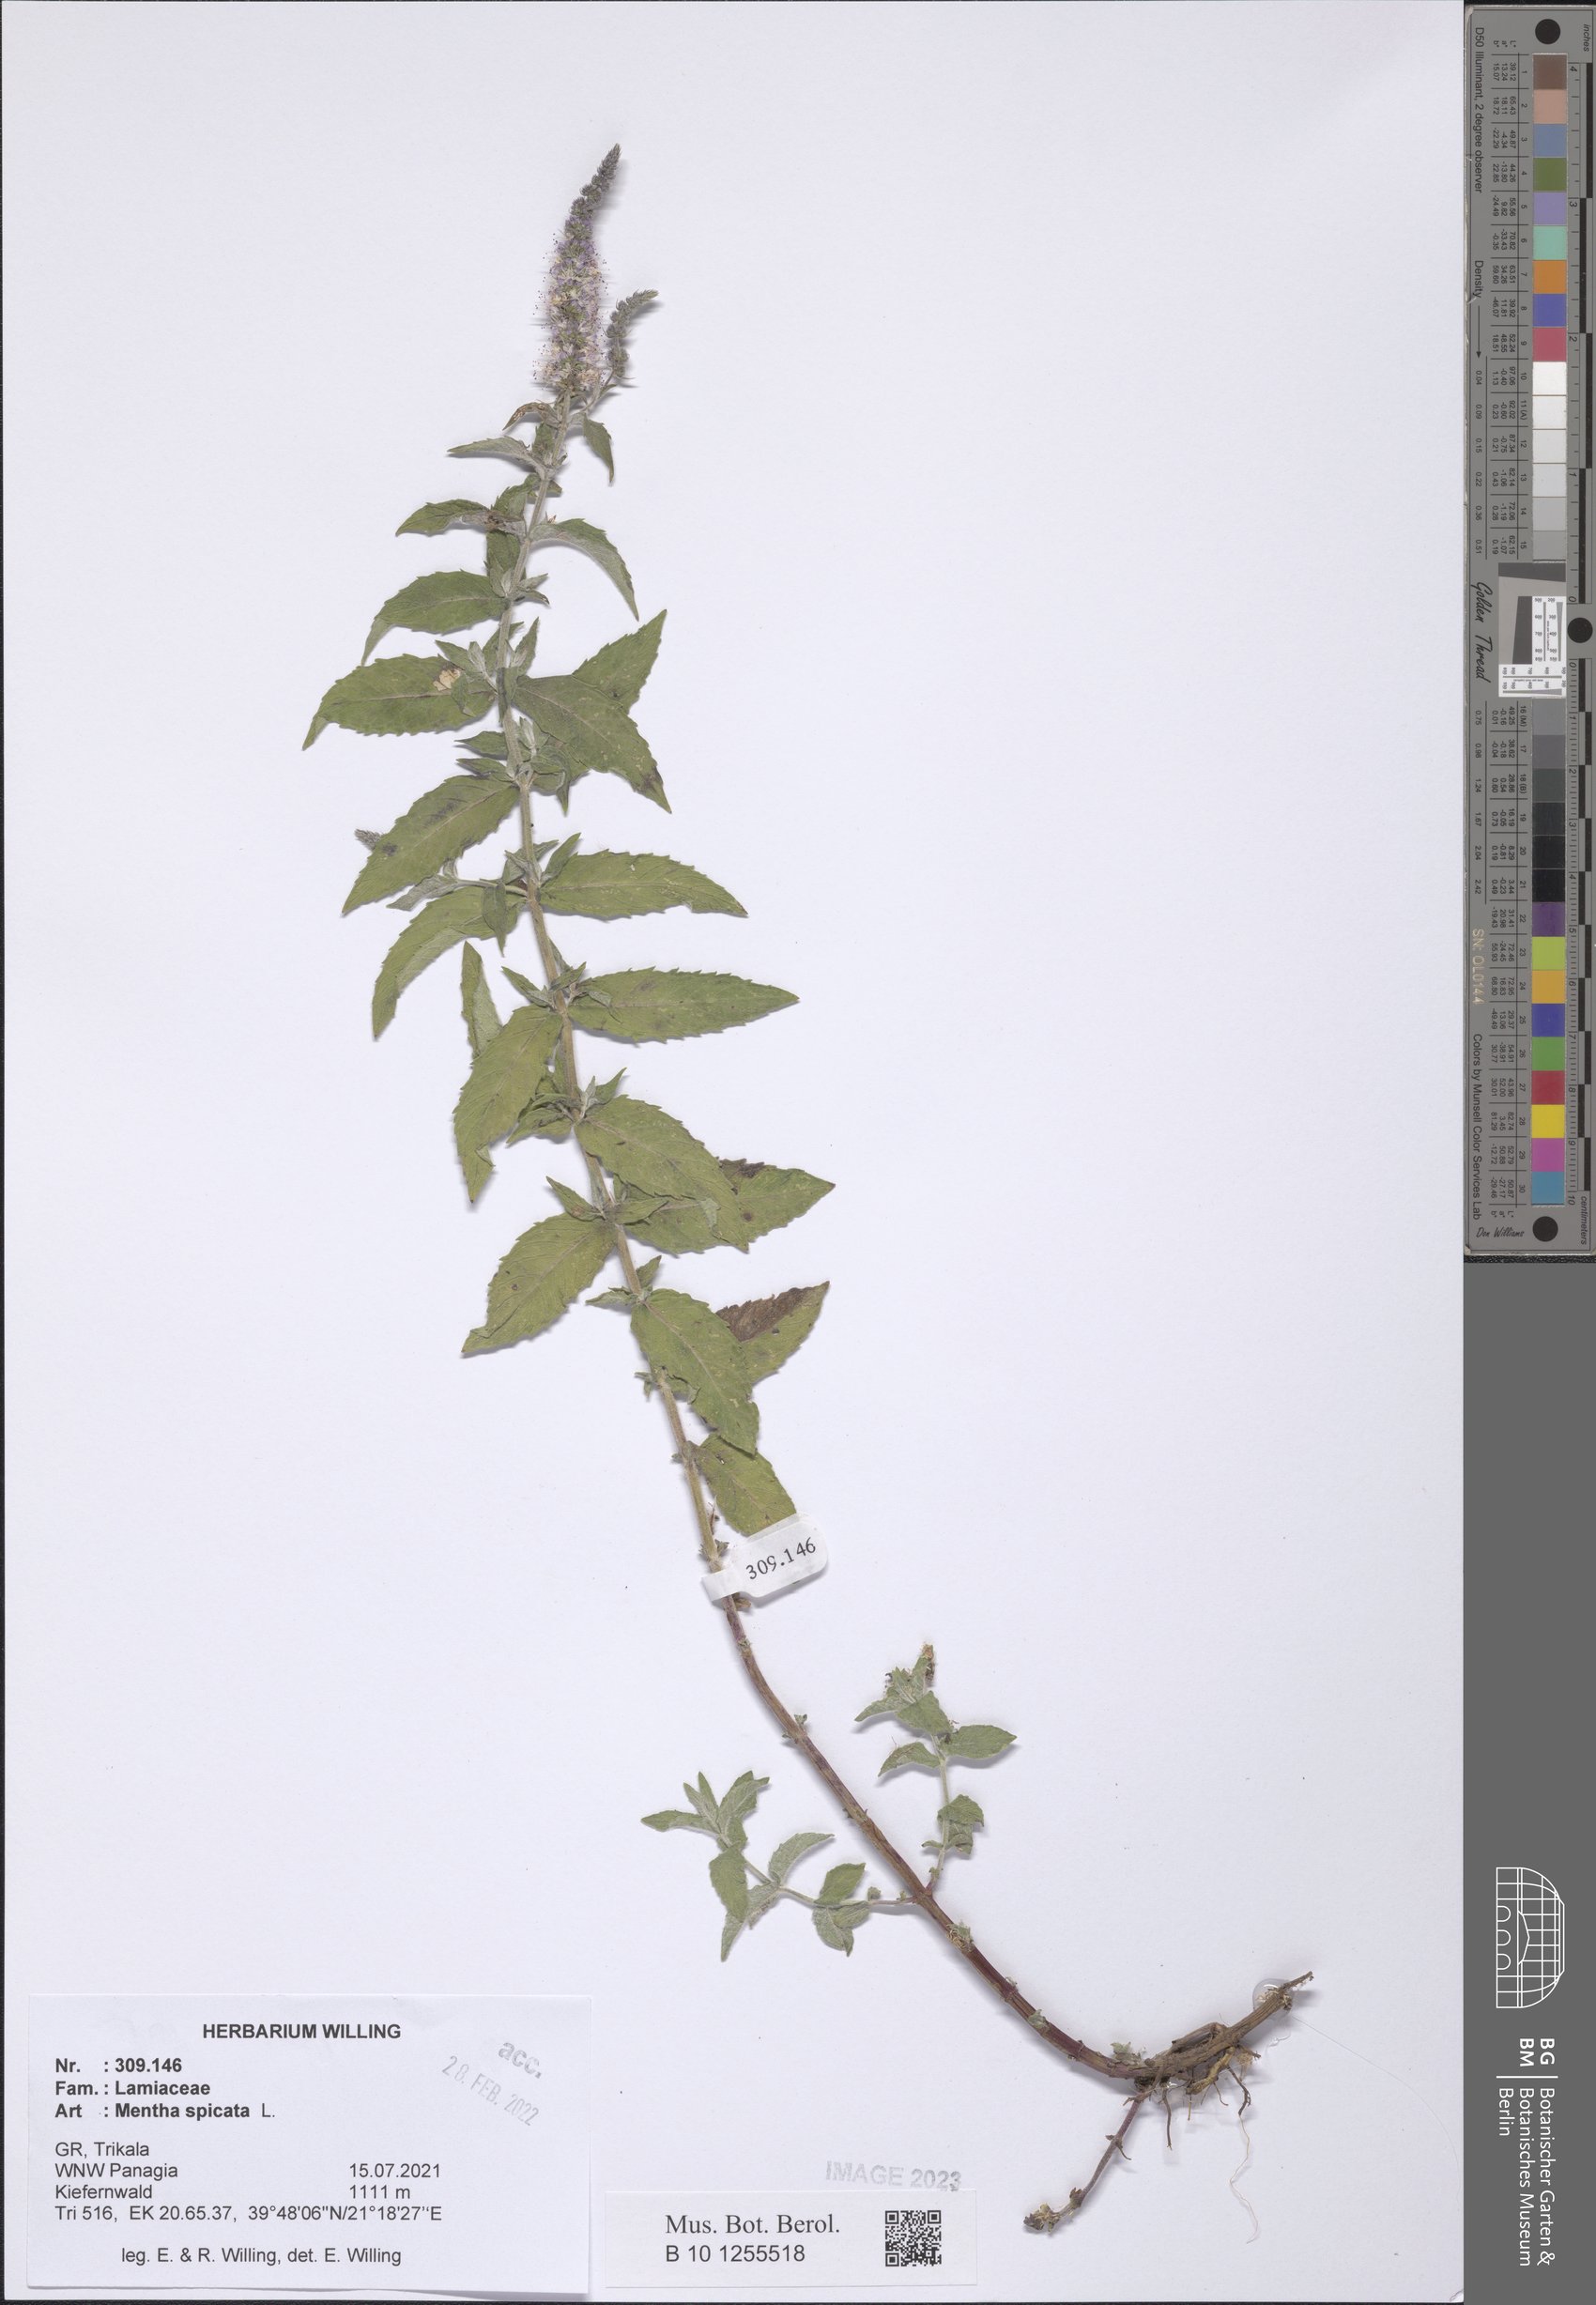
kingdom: Plantae
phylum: Tracheophyta
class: Magnoliopsida
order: Lamiales
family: Lamiaceae
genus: Mentha
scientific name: Mentha spicata
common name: Spearmint
